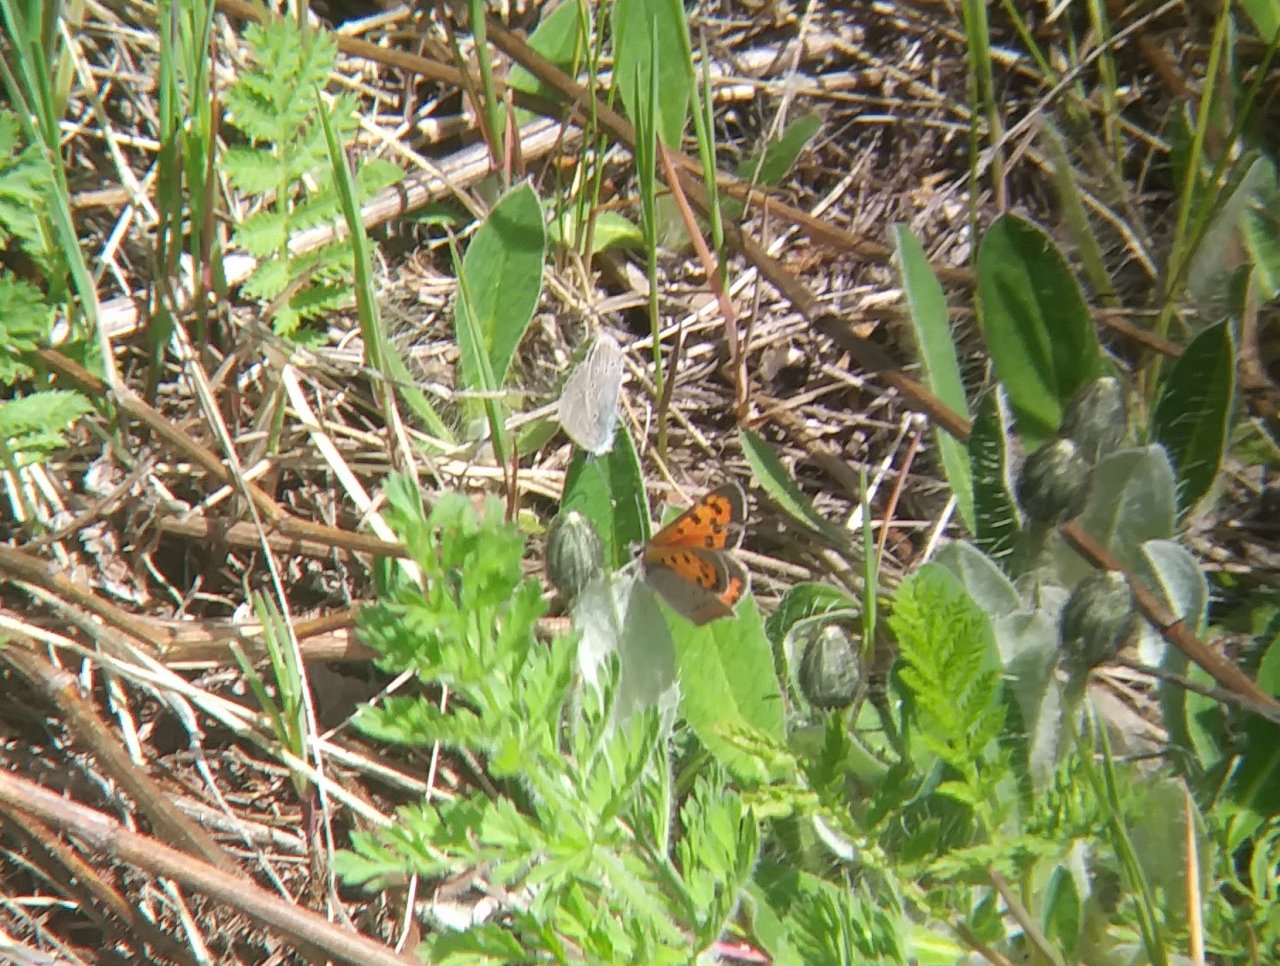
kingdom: Animalia
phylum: Arthropoda
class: Insecta
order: Lepidoptera
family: Lycaenidae
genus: Lycaena
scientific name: Lycaena phlaeas
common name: American Copper
